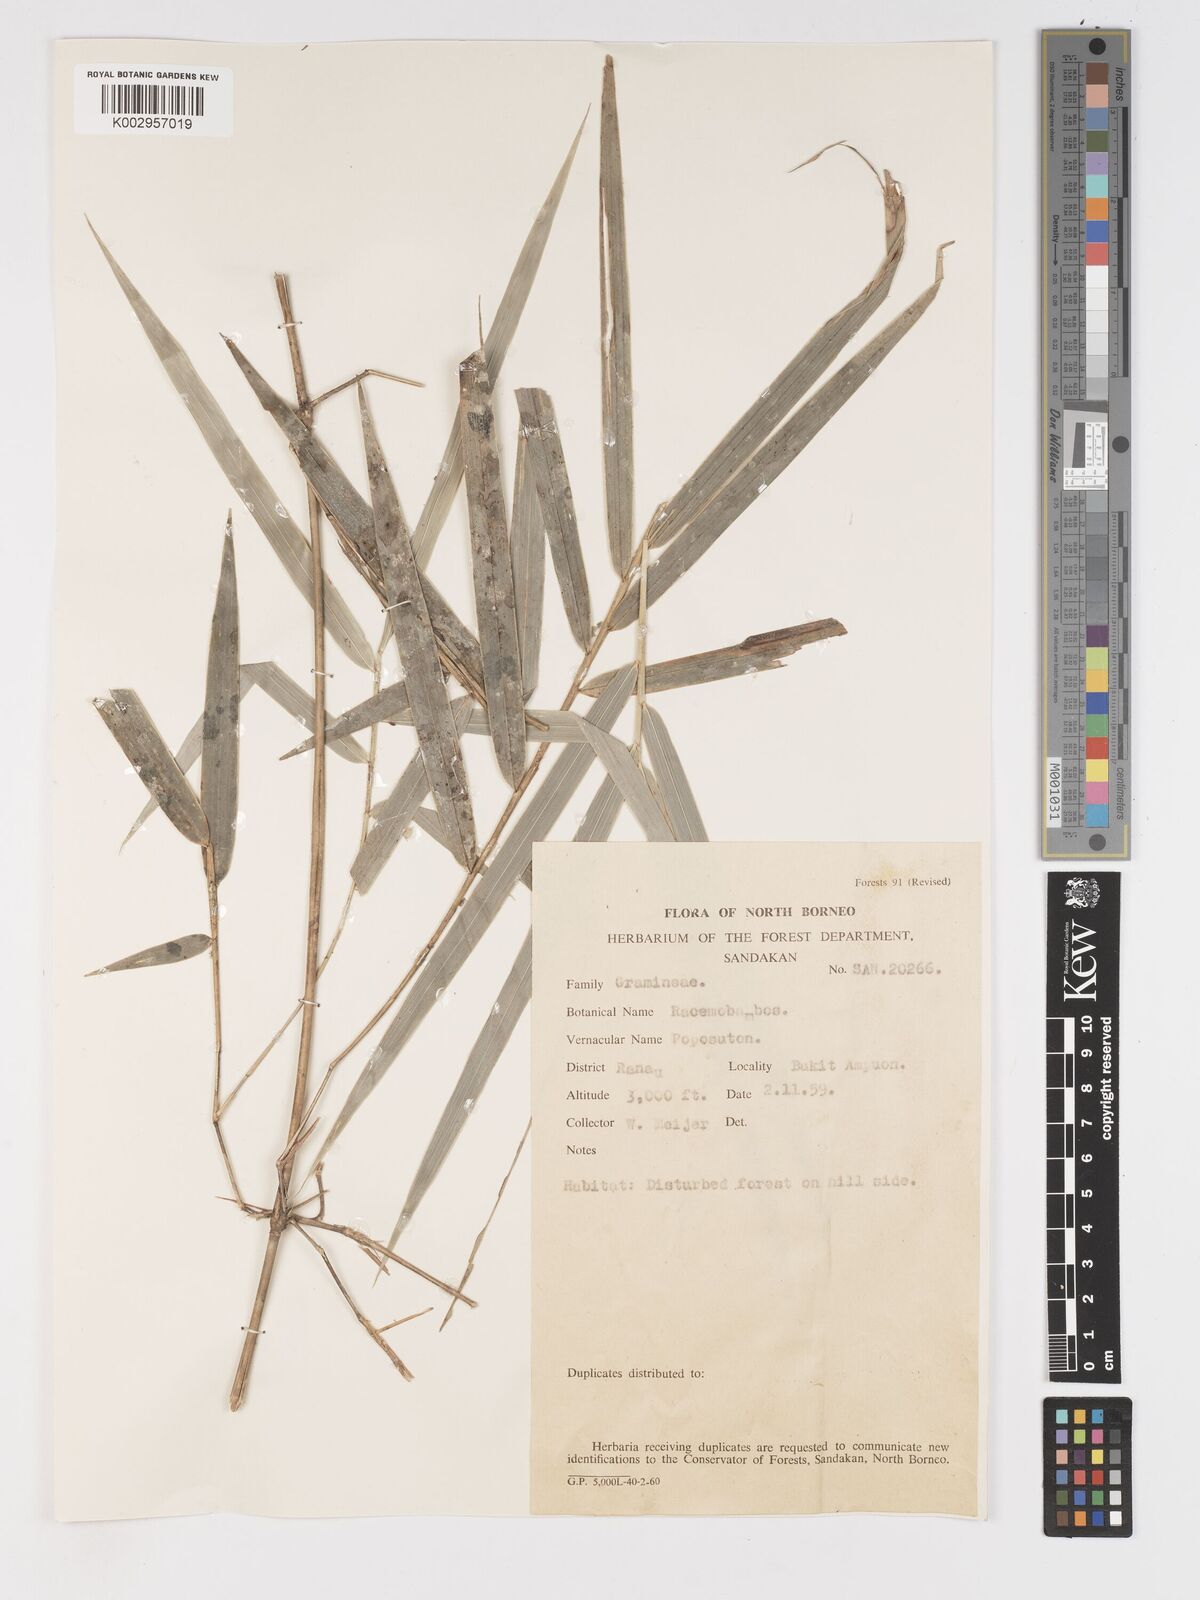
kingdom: Plantae
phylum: Tracheophyta
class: Liliopsida
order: Poales
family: Poaceae
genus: Racemobambos
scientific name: Racemobambos hirsuta
